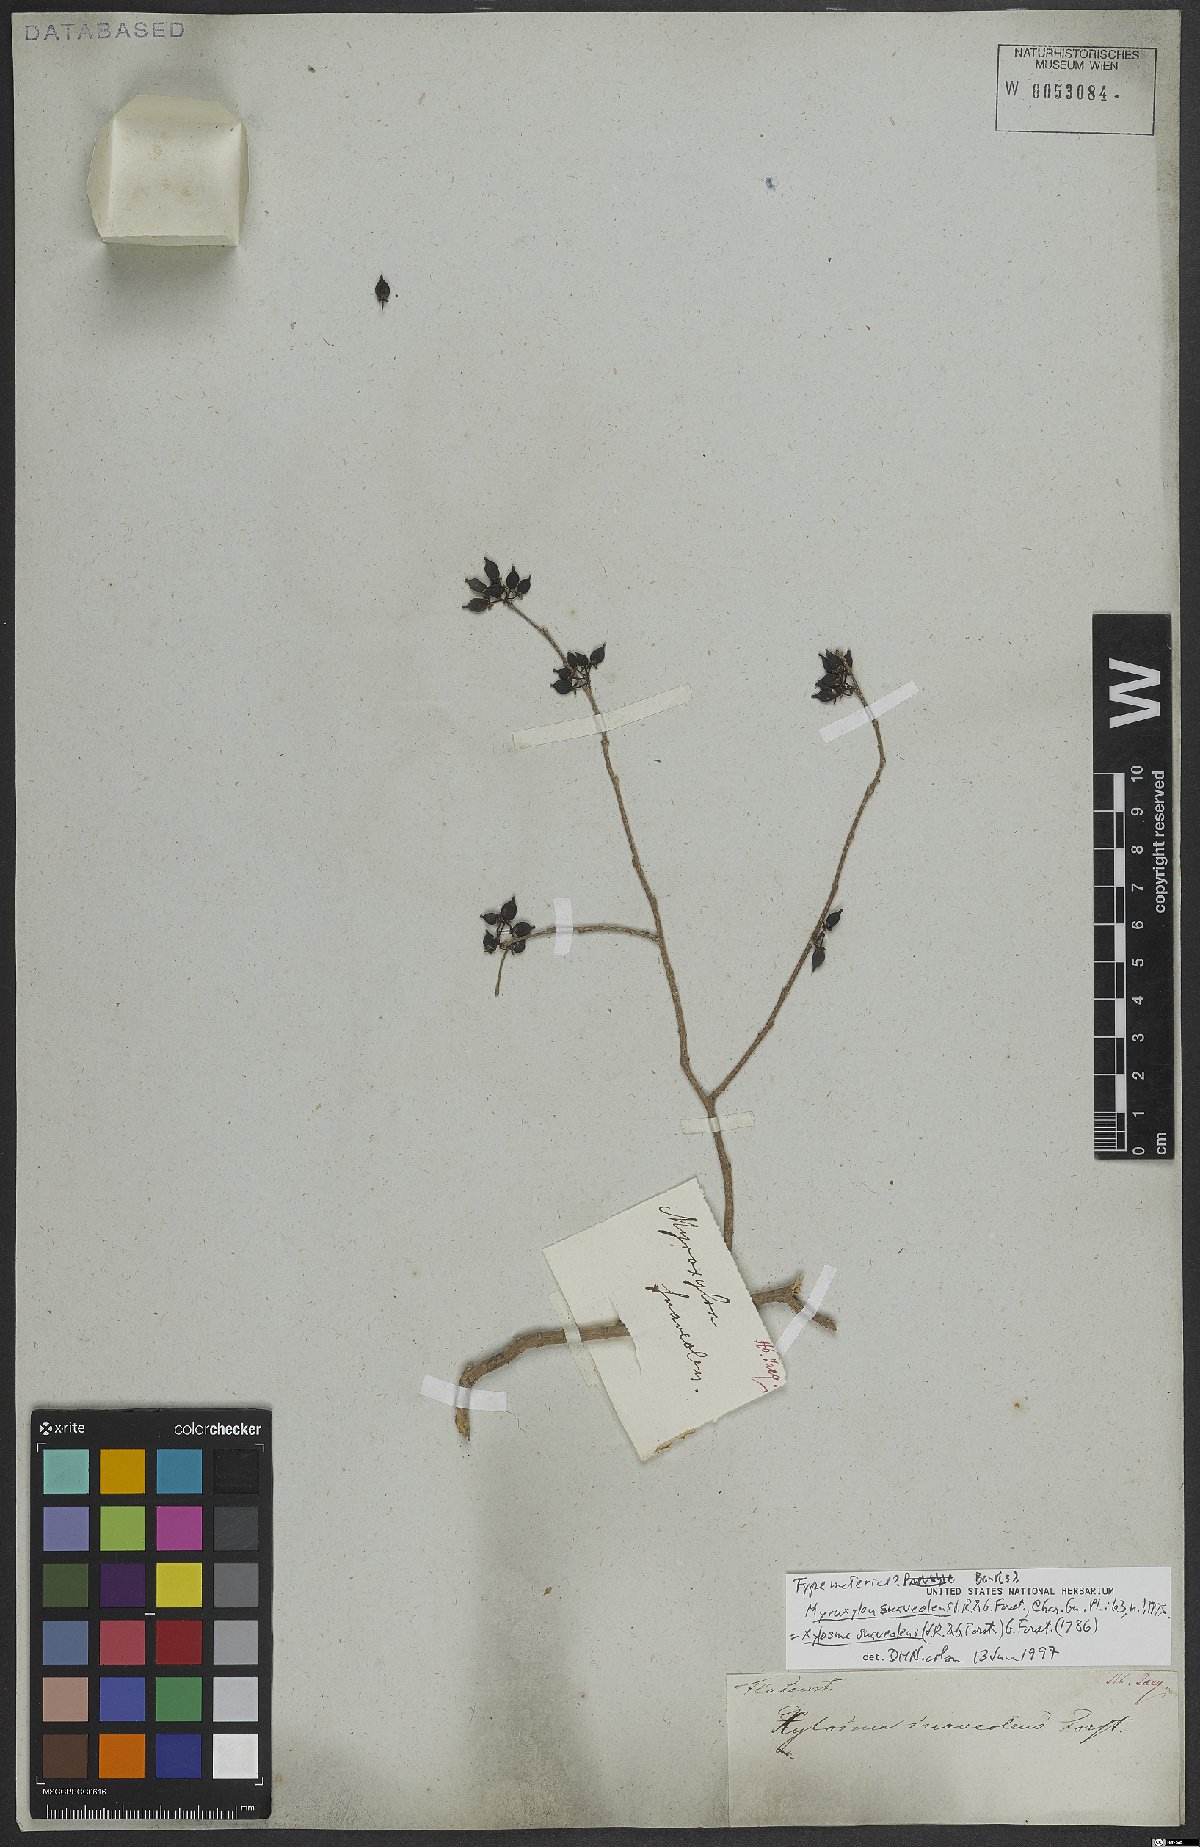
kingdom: Plantae
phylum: Tracheophyta
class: Magnoliopsida
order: Malpighiales
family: Salicaceae
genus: Xylosma
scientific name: Xylosma suaveolens
